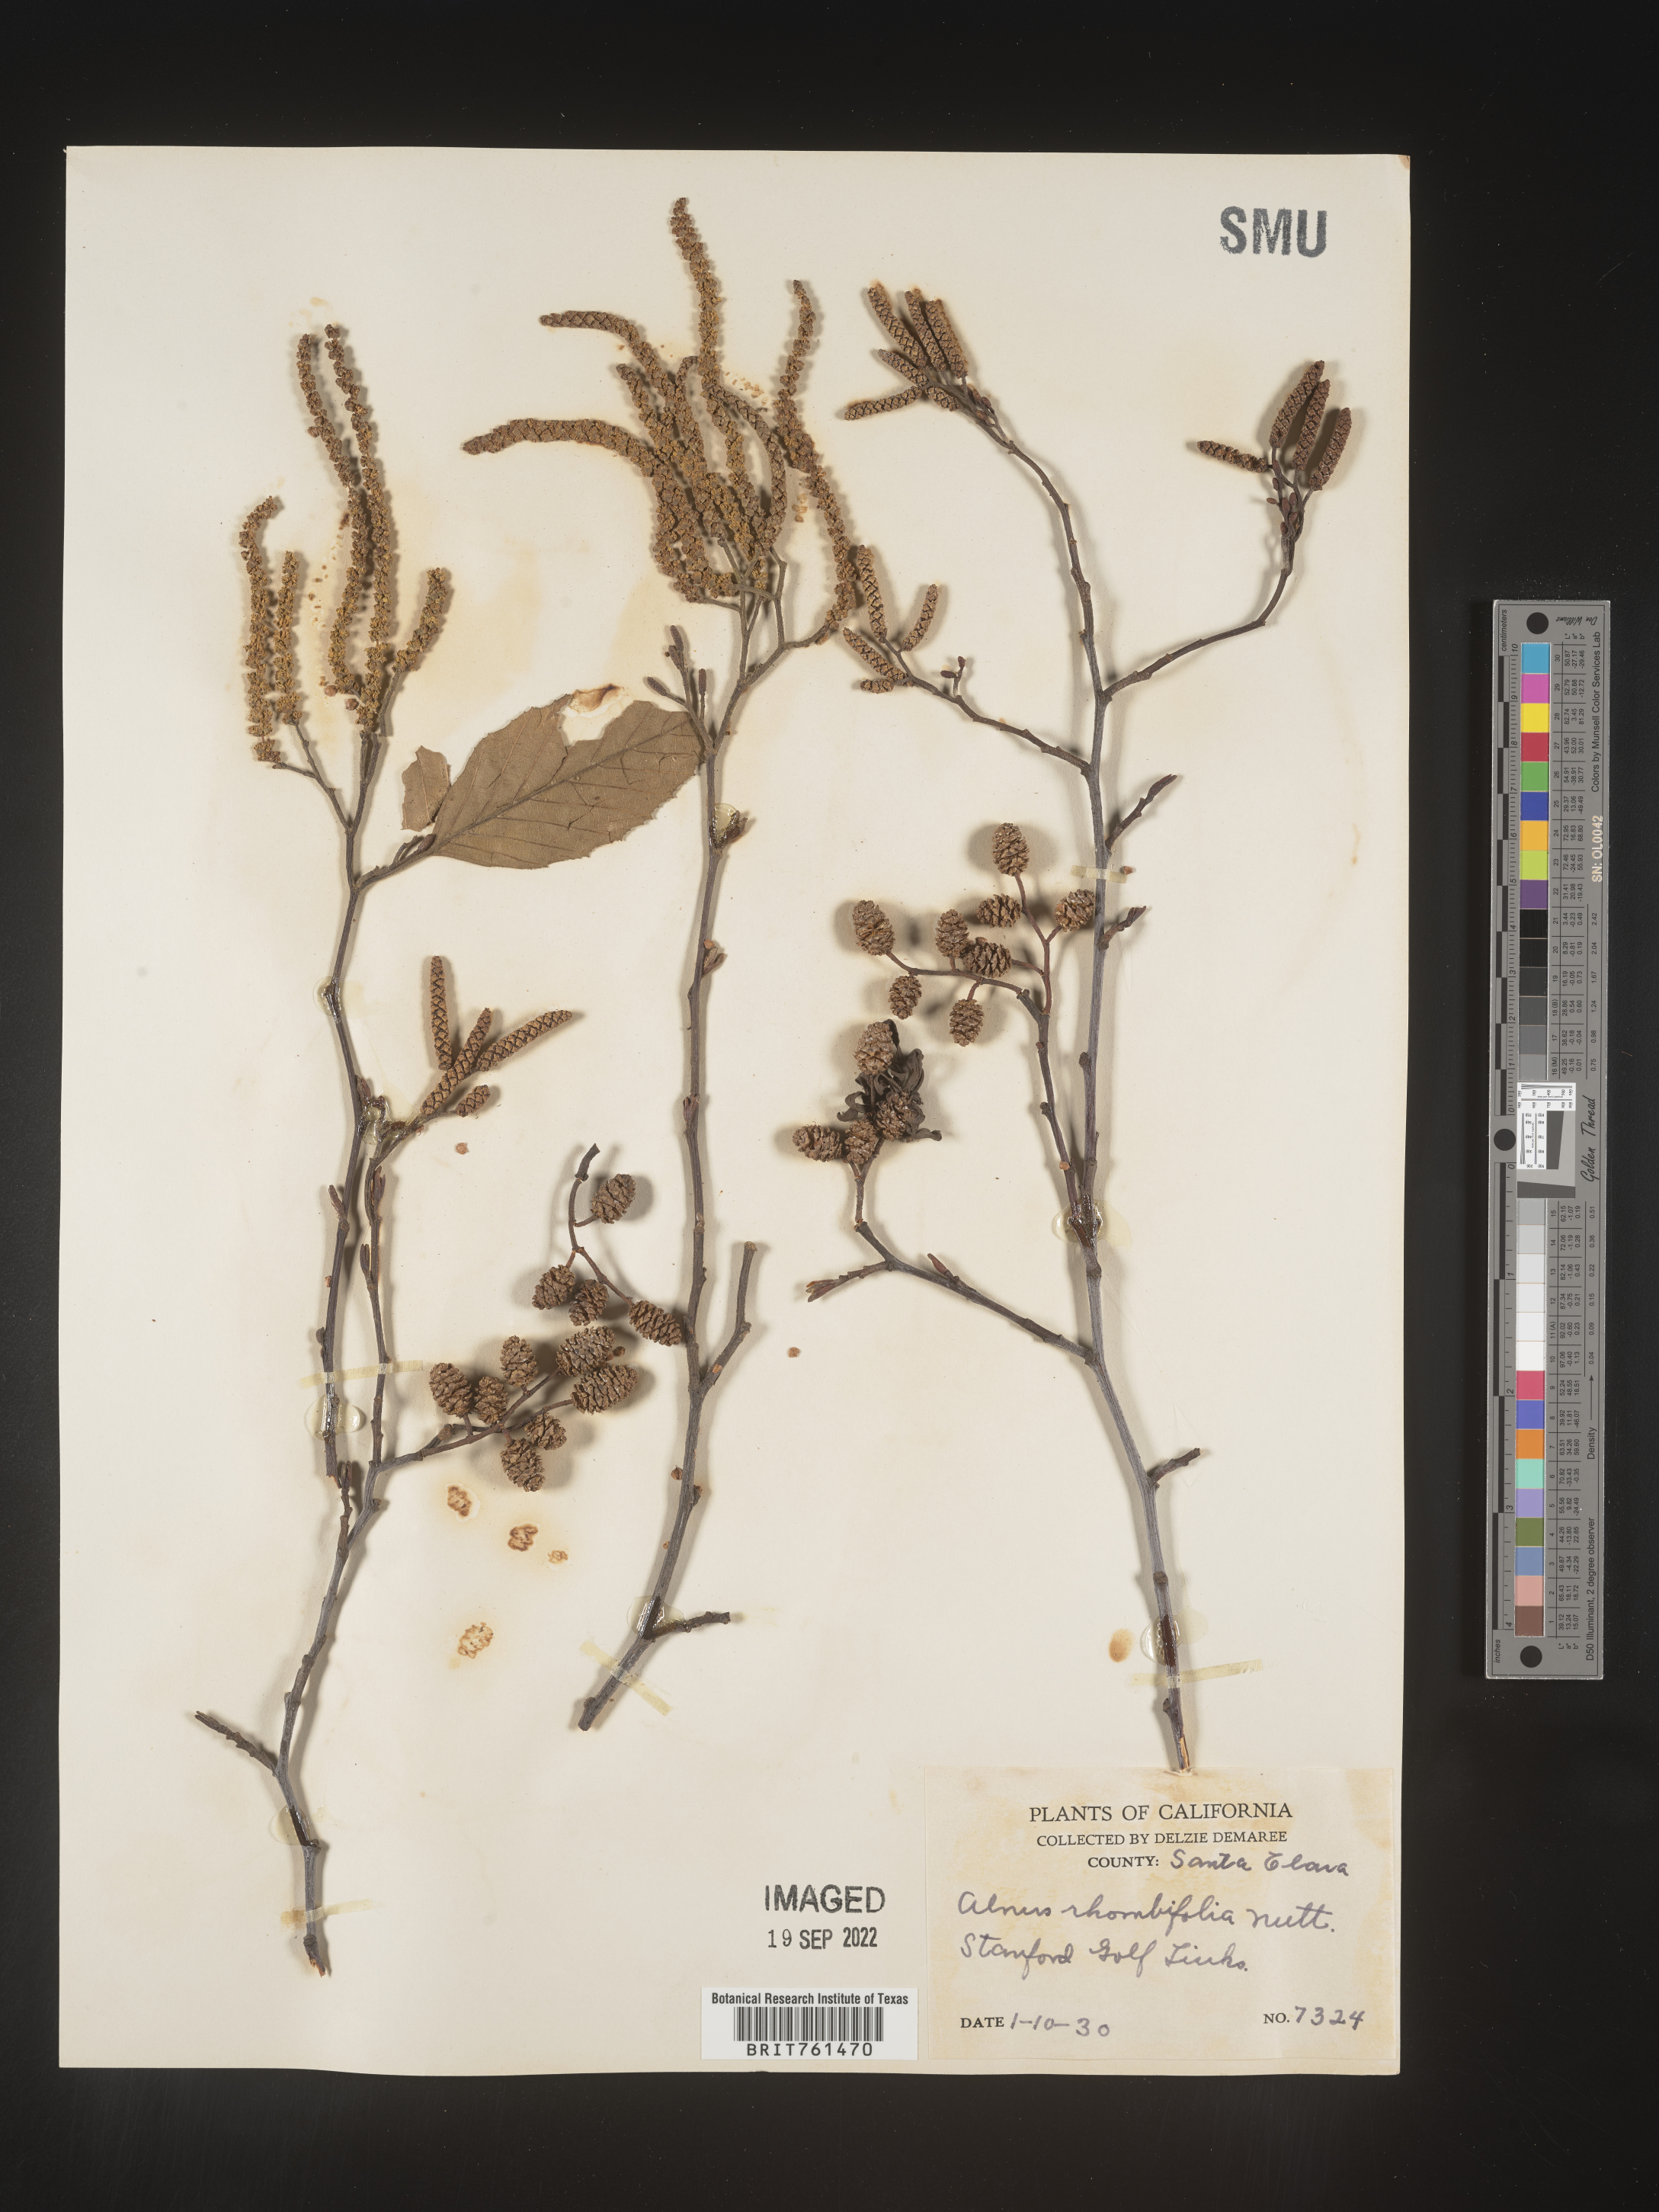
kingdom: Plantae
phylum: Tracheophyta
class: Magnoliopsida
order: Fagales
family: Betulaceae
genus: Alnus
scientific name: Alnus rhombifolia
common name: California alder
